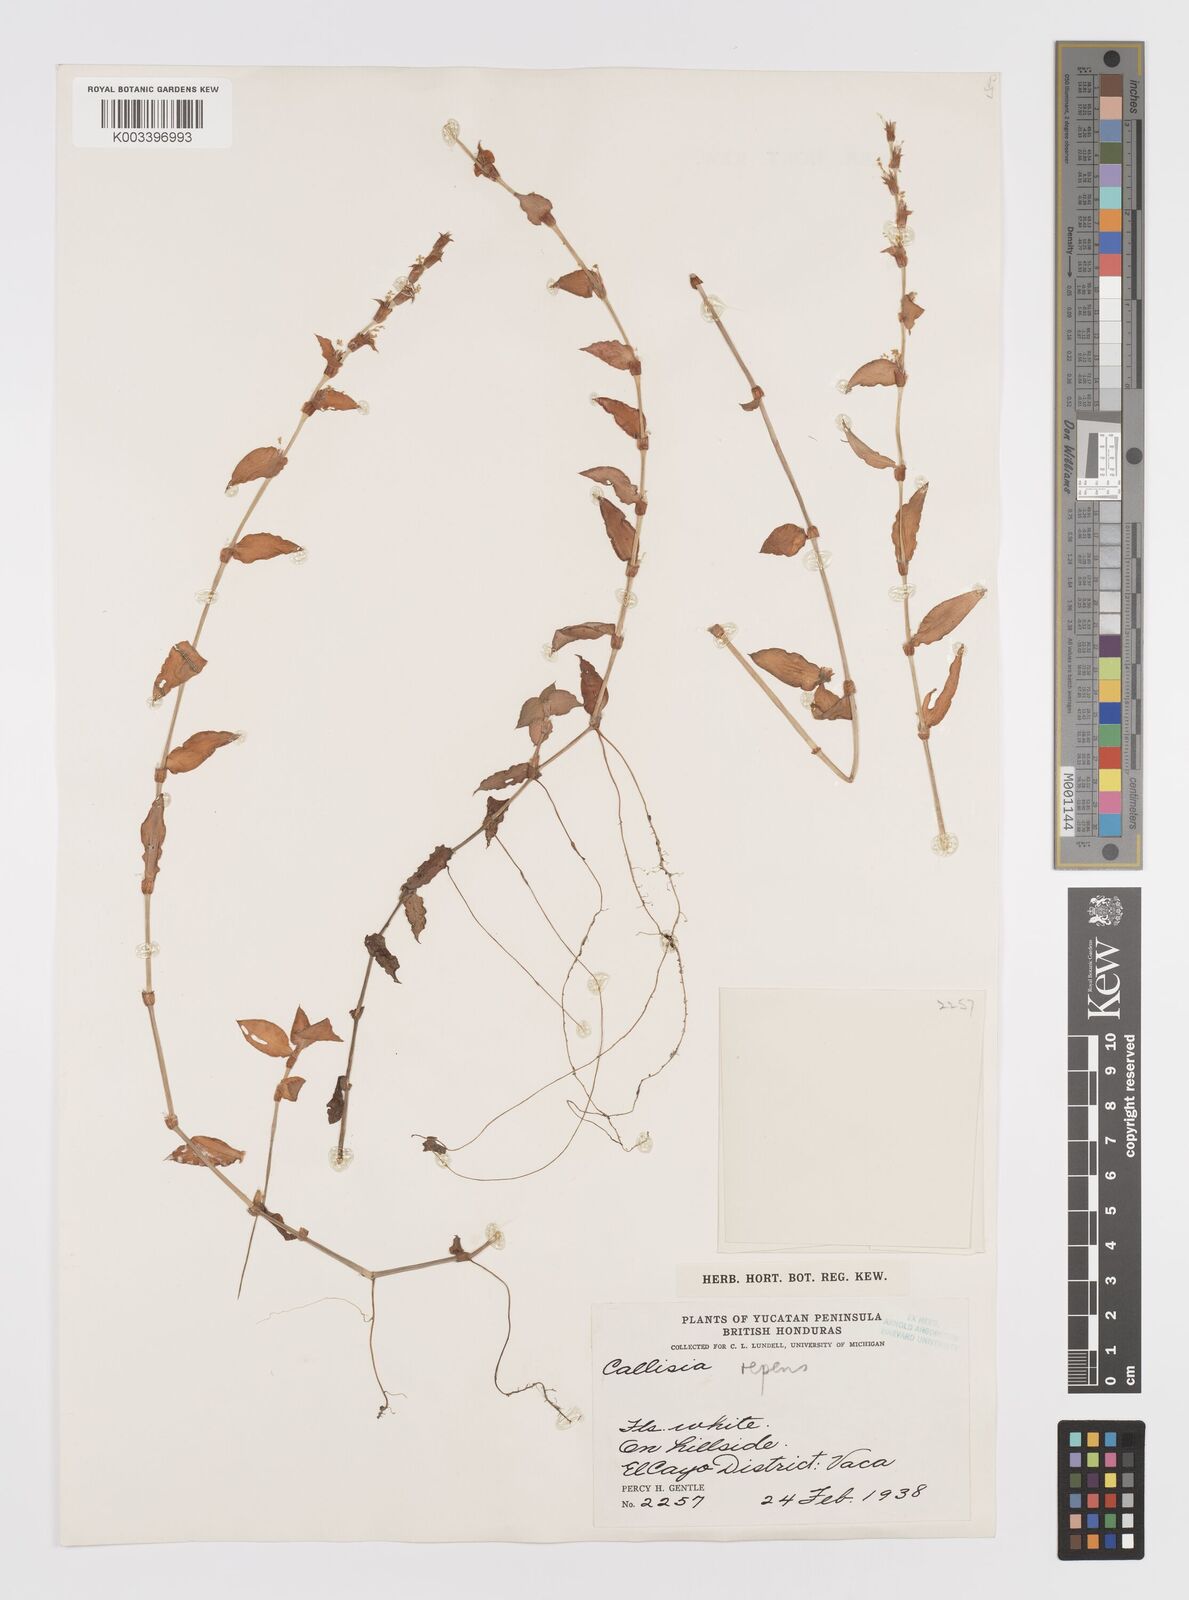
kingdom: Plantae
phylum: Tracheophyta
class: Liliopsida
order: Commelinales
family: Commelinaceae
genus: Callisia
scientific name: Callisia repens
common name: Creeping inchplant
